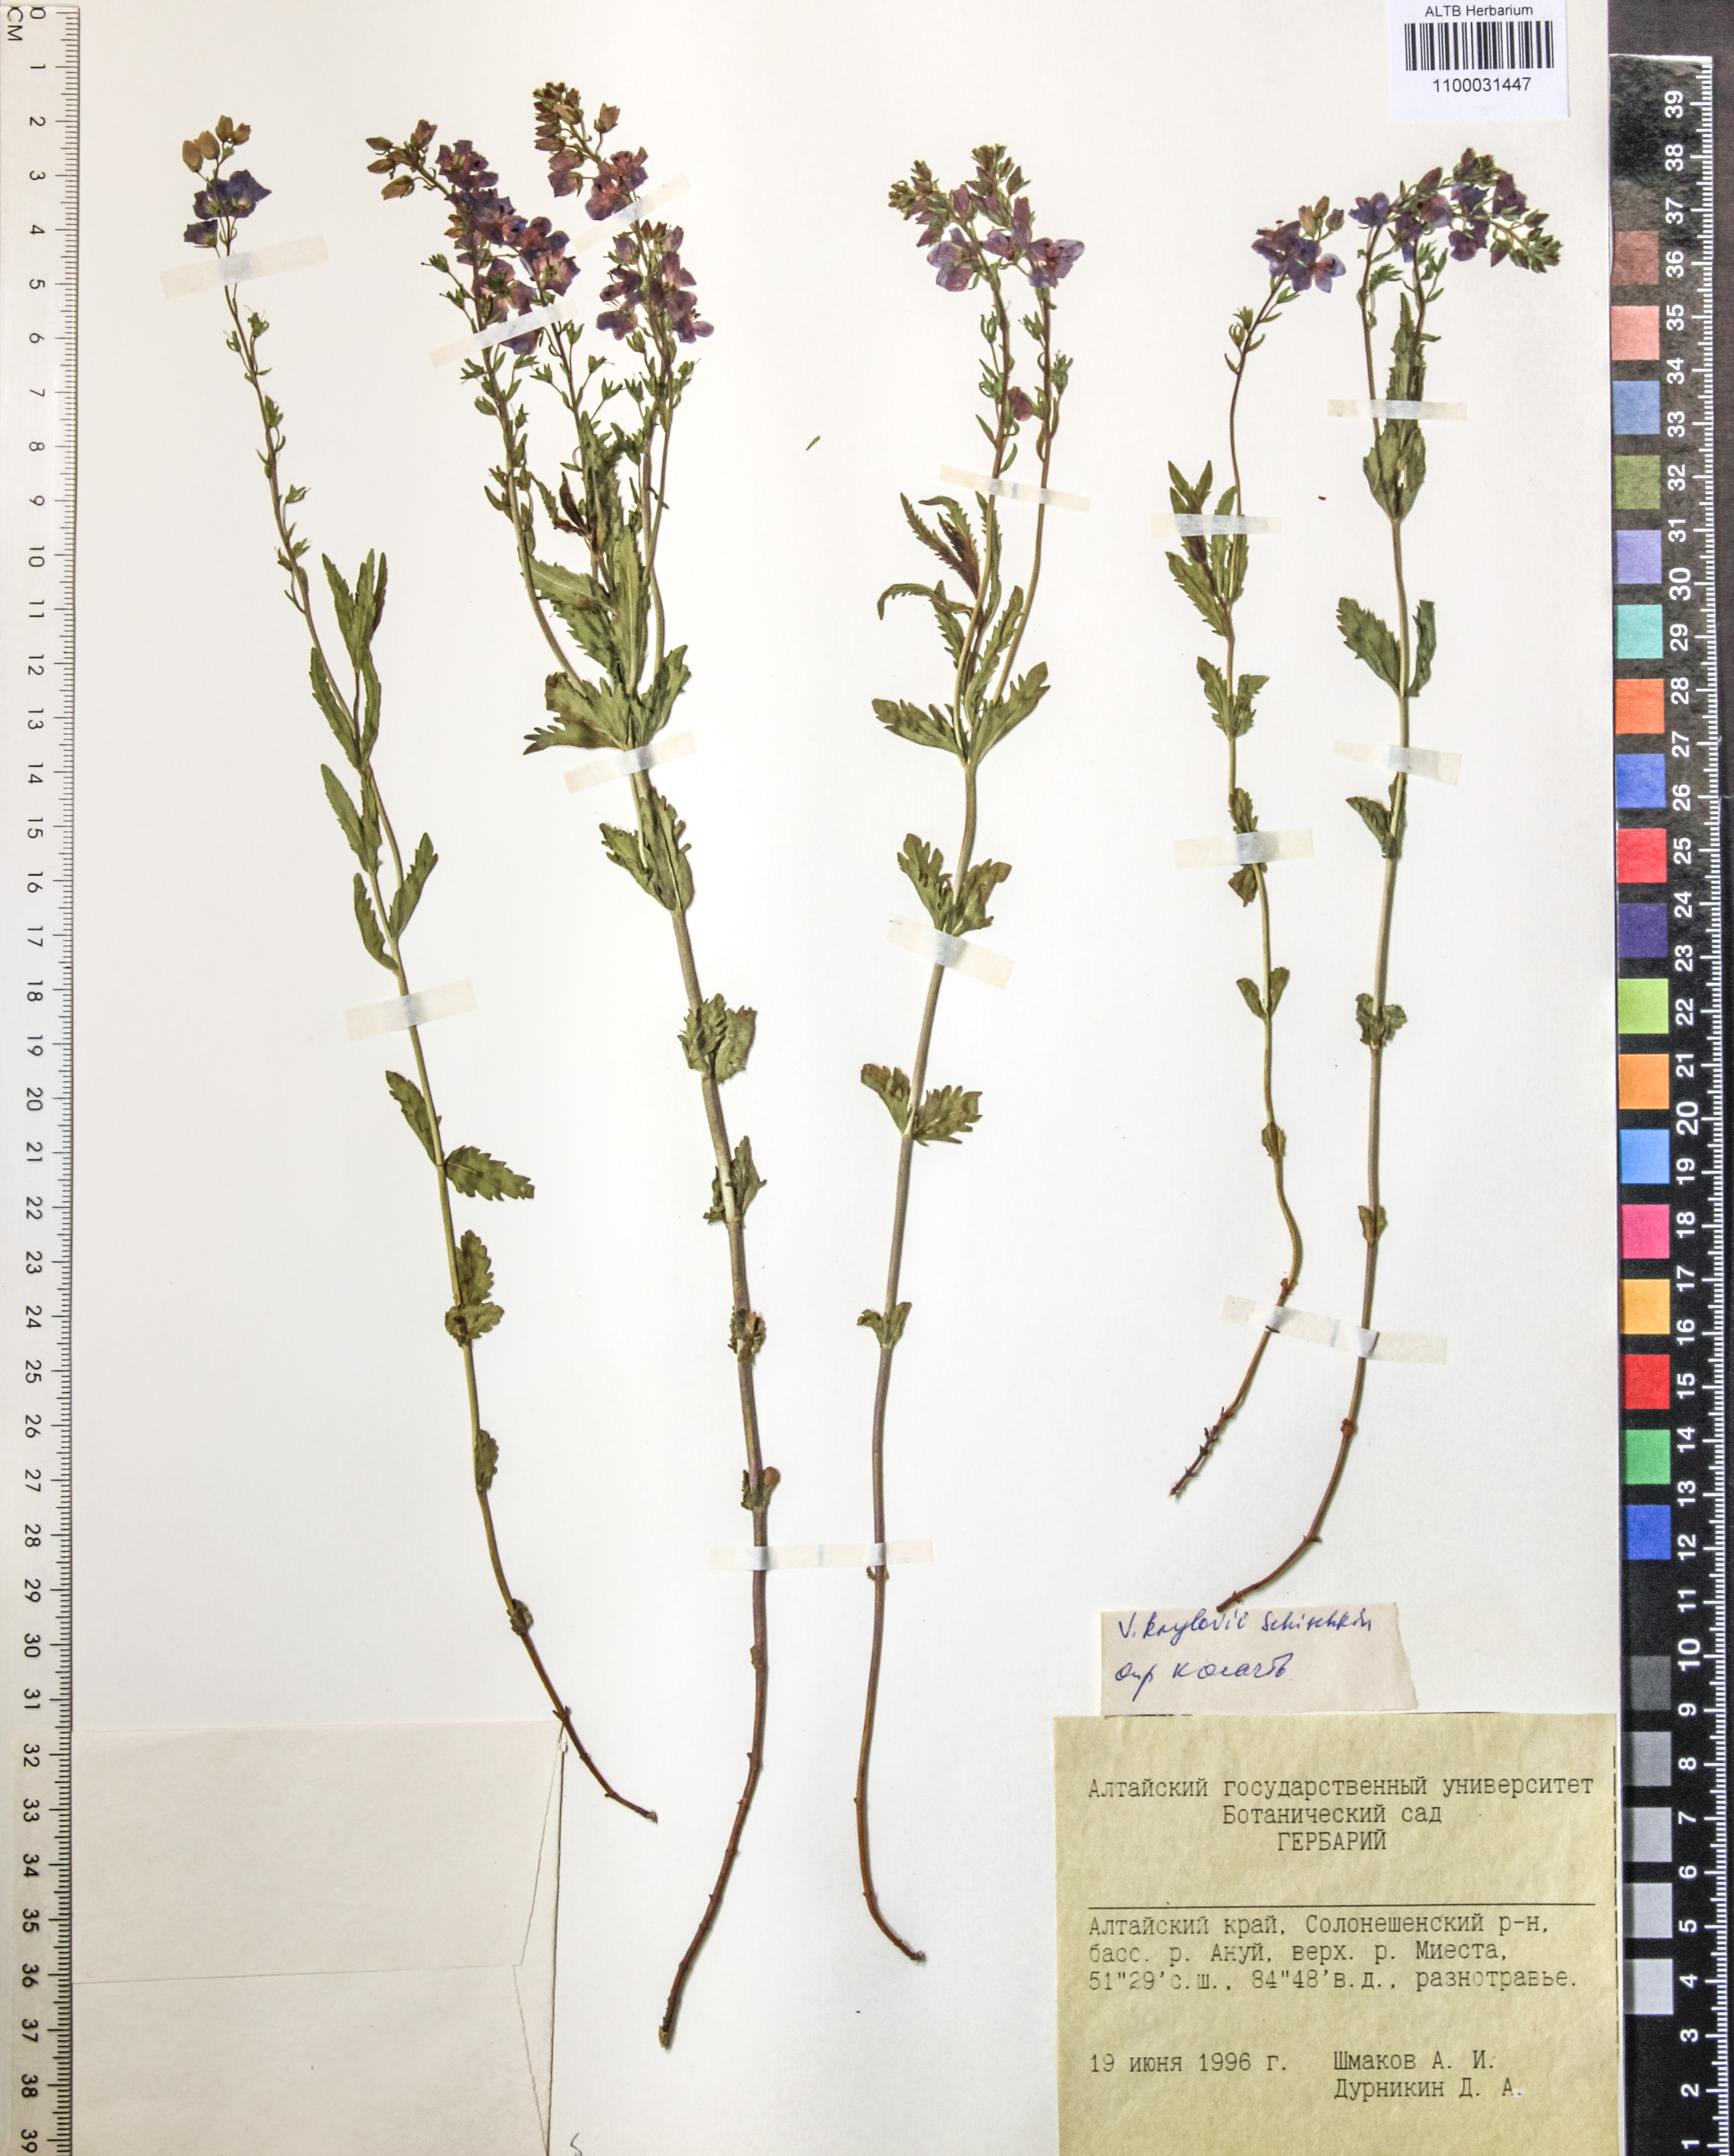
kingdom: Plantae
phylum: Tracheophyta
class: Magnoliopsida
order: Lamiales
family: Plantaginaceae
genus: Veronica
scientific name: Veronica krylovii
